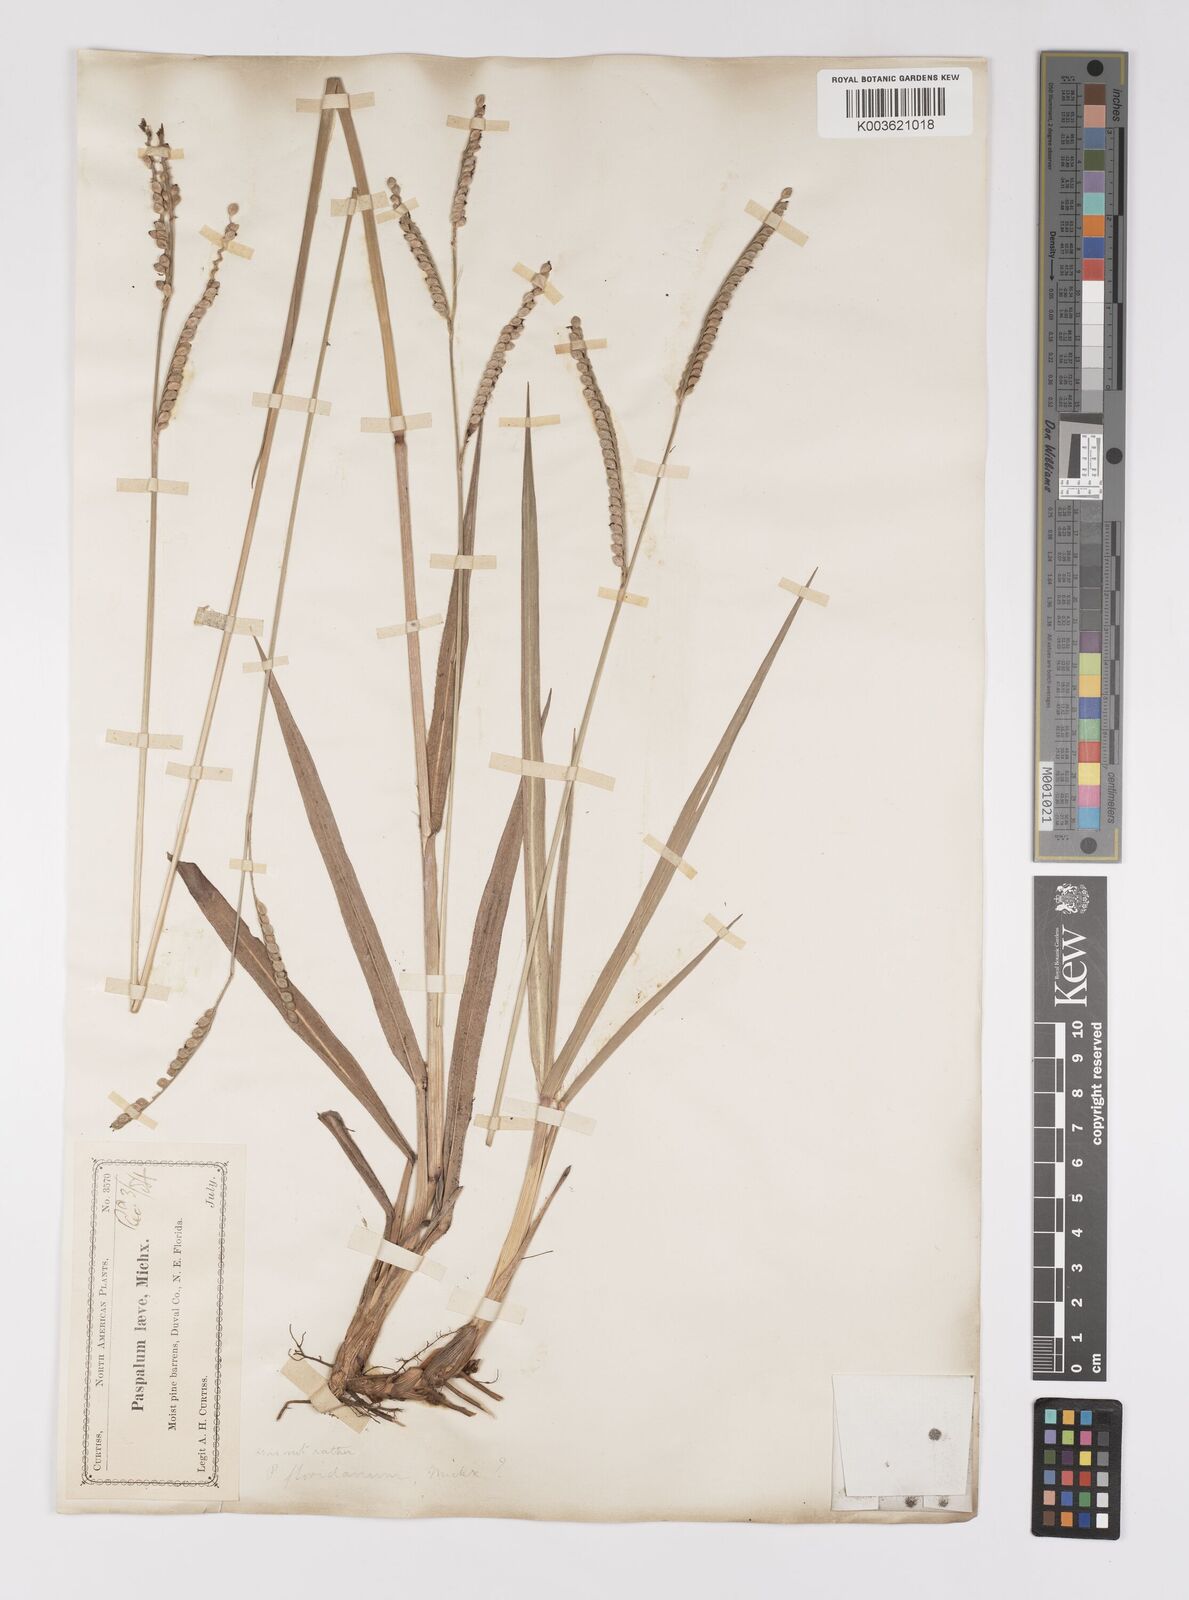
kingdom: Plantae
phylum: Tracheophyta
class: Liliopsida
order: Poales
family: Poaceae
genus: Paspalum
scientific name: Paspalum floridanum
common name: Florida paspalum
